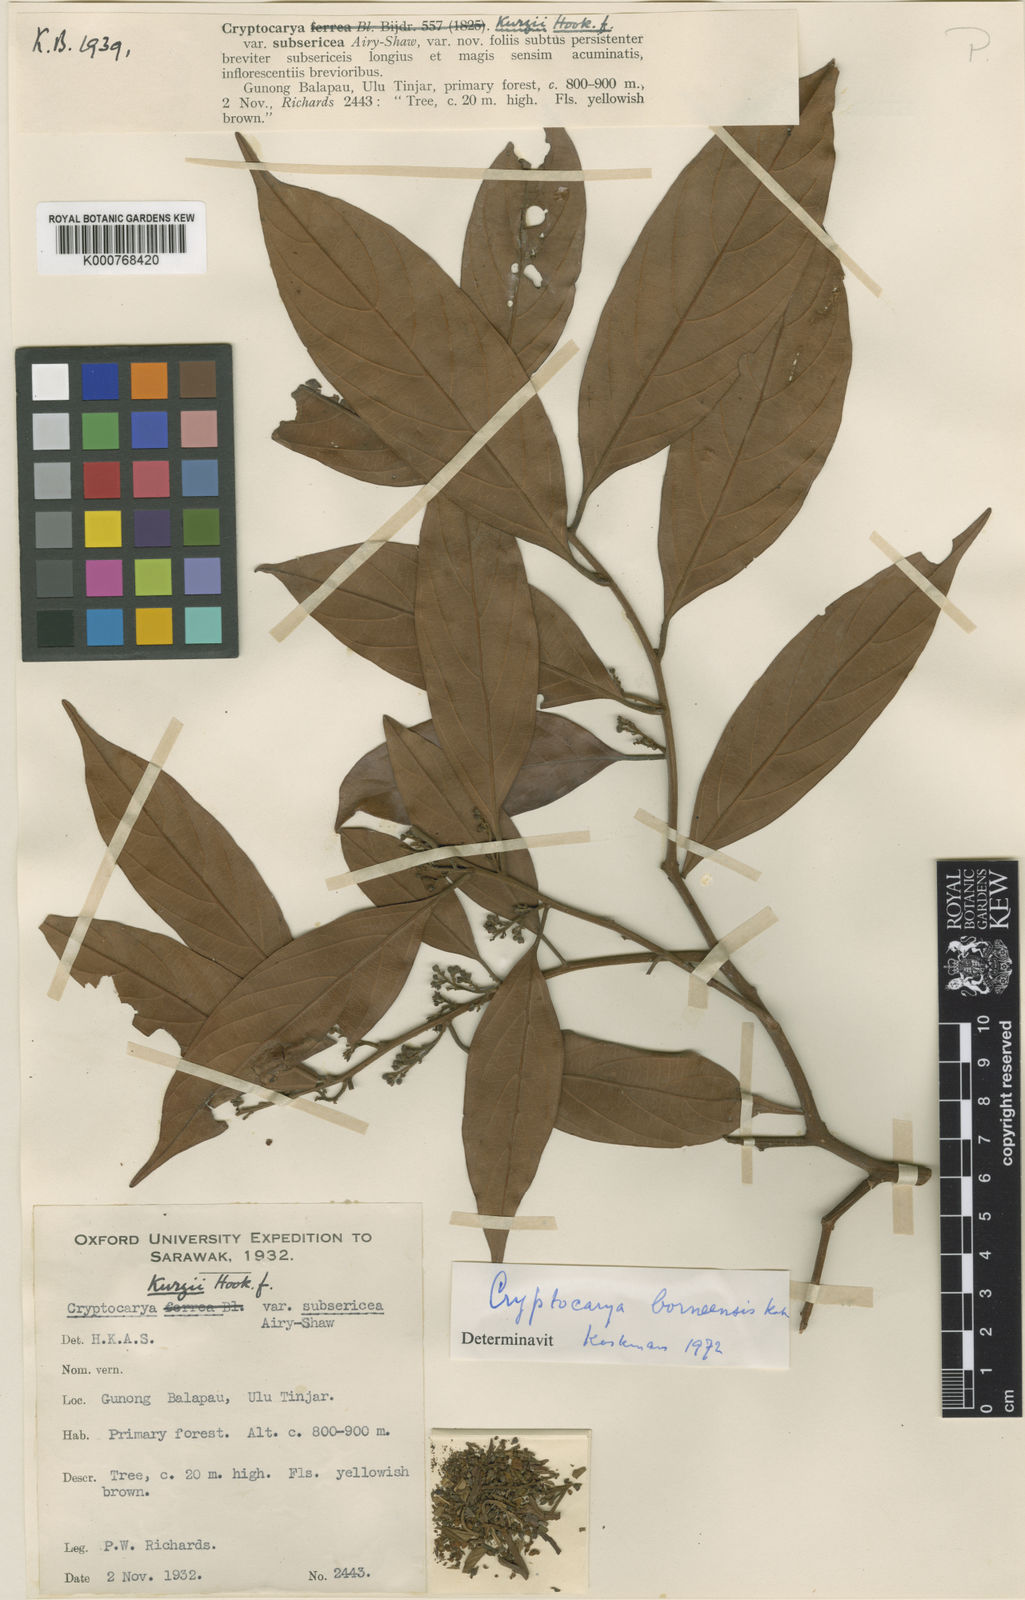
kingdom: Plantae
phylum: Tracheophyta
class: Magnoliopsida
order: Laurales
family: Lauraceae
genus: Cryptocarya
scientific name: Cryptocarya kurzii
